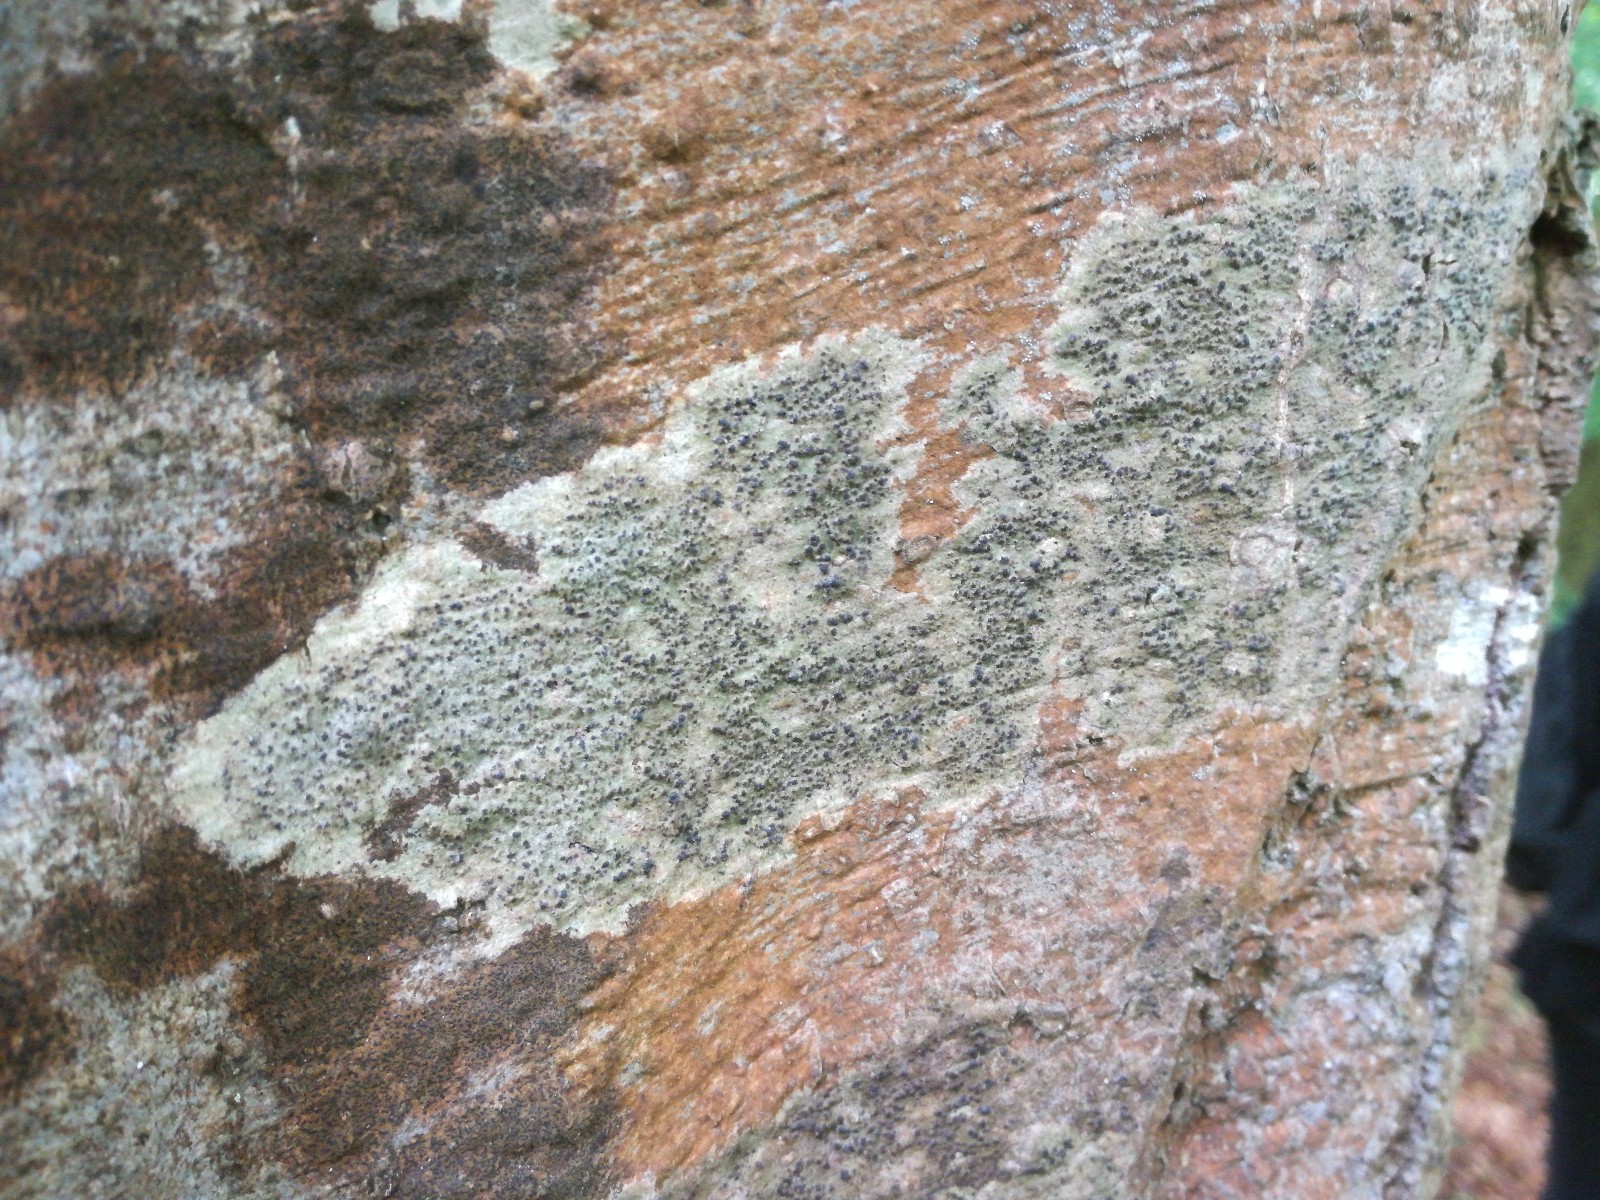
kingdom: Fungi
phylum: Ascomycota
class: Eurotiomycetes
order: Pyrenulales
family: Pyrenulaceae
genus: Pyrenula
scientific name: Pyrenula nitida
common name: glinsende kernelav
